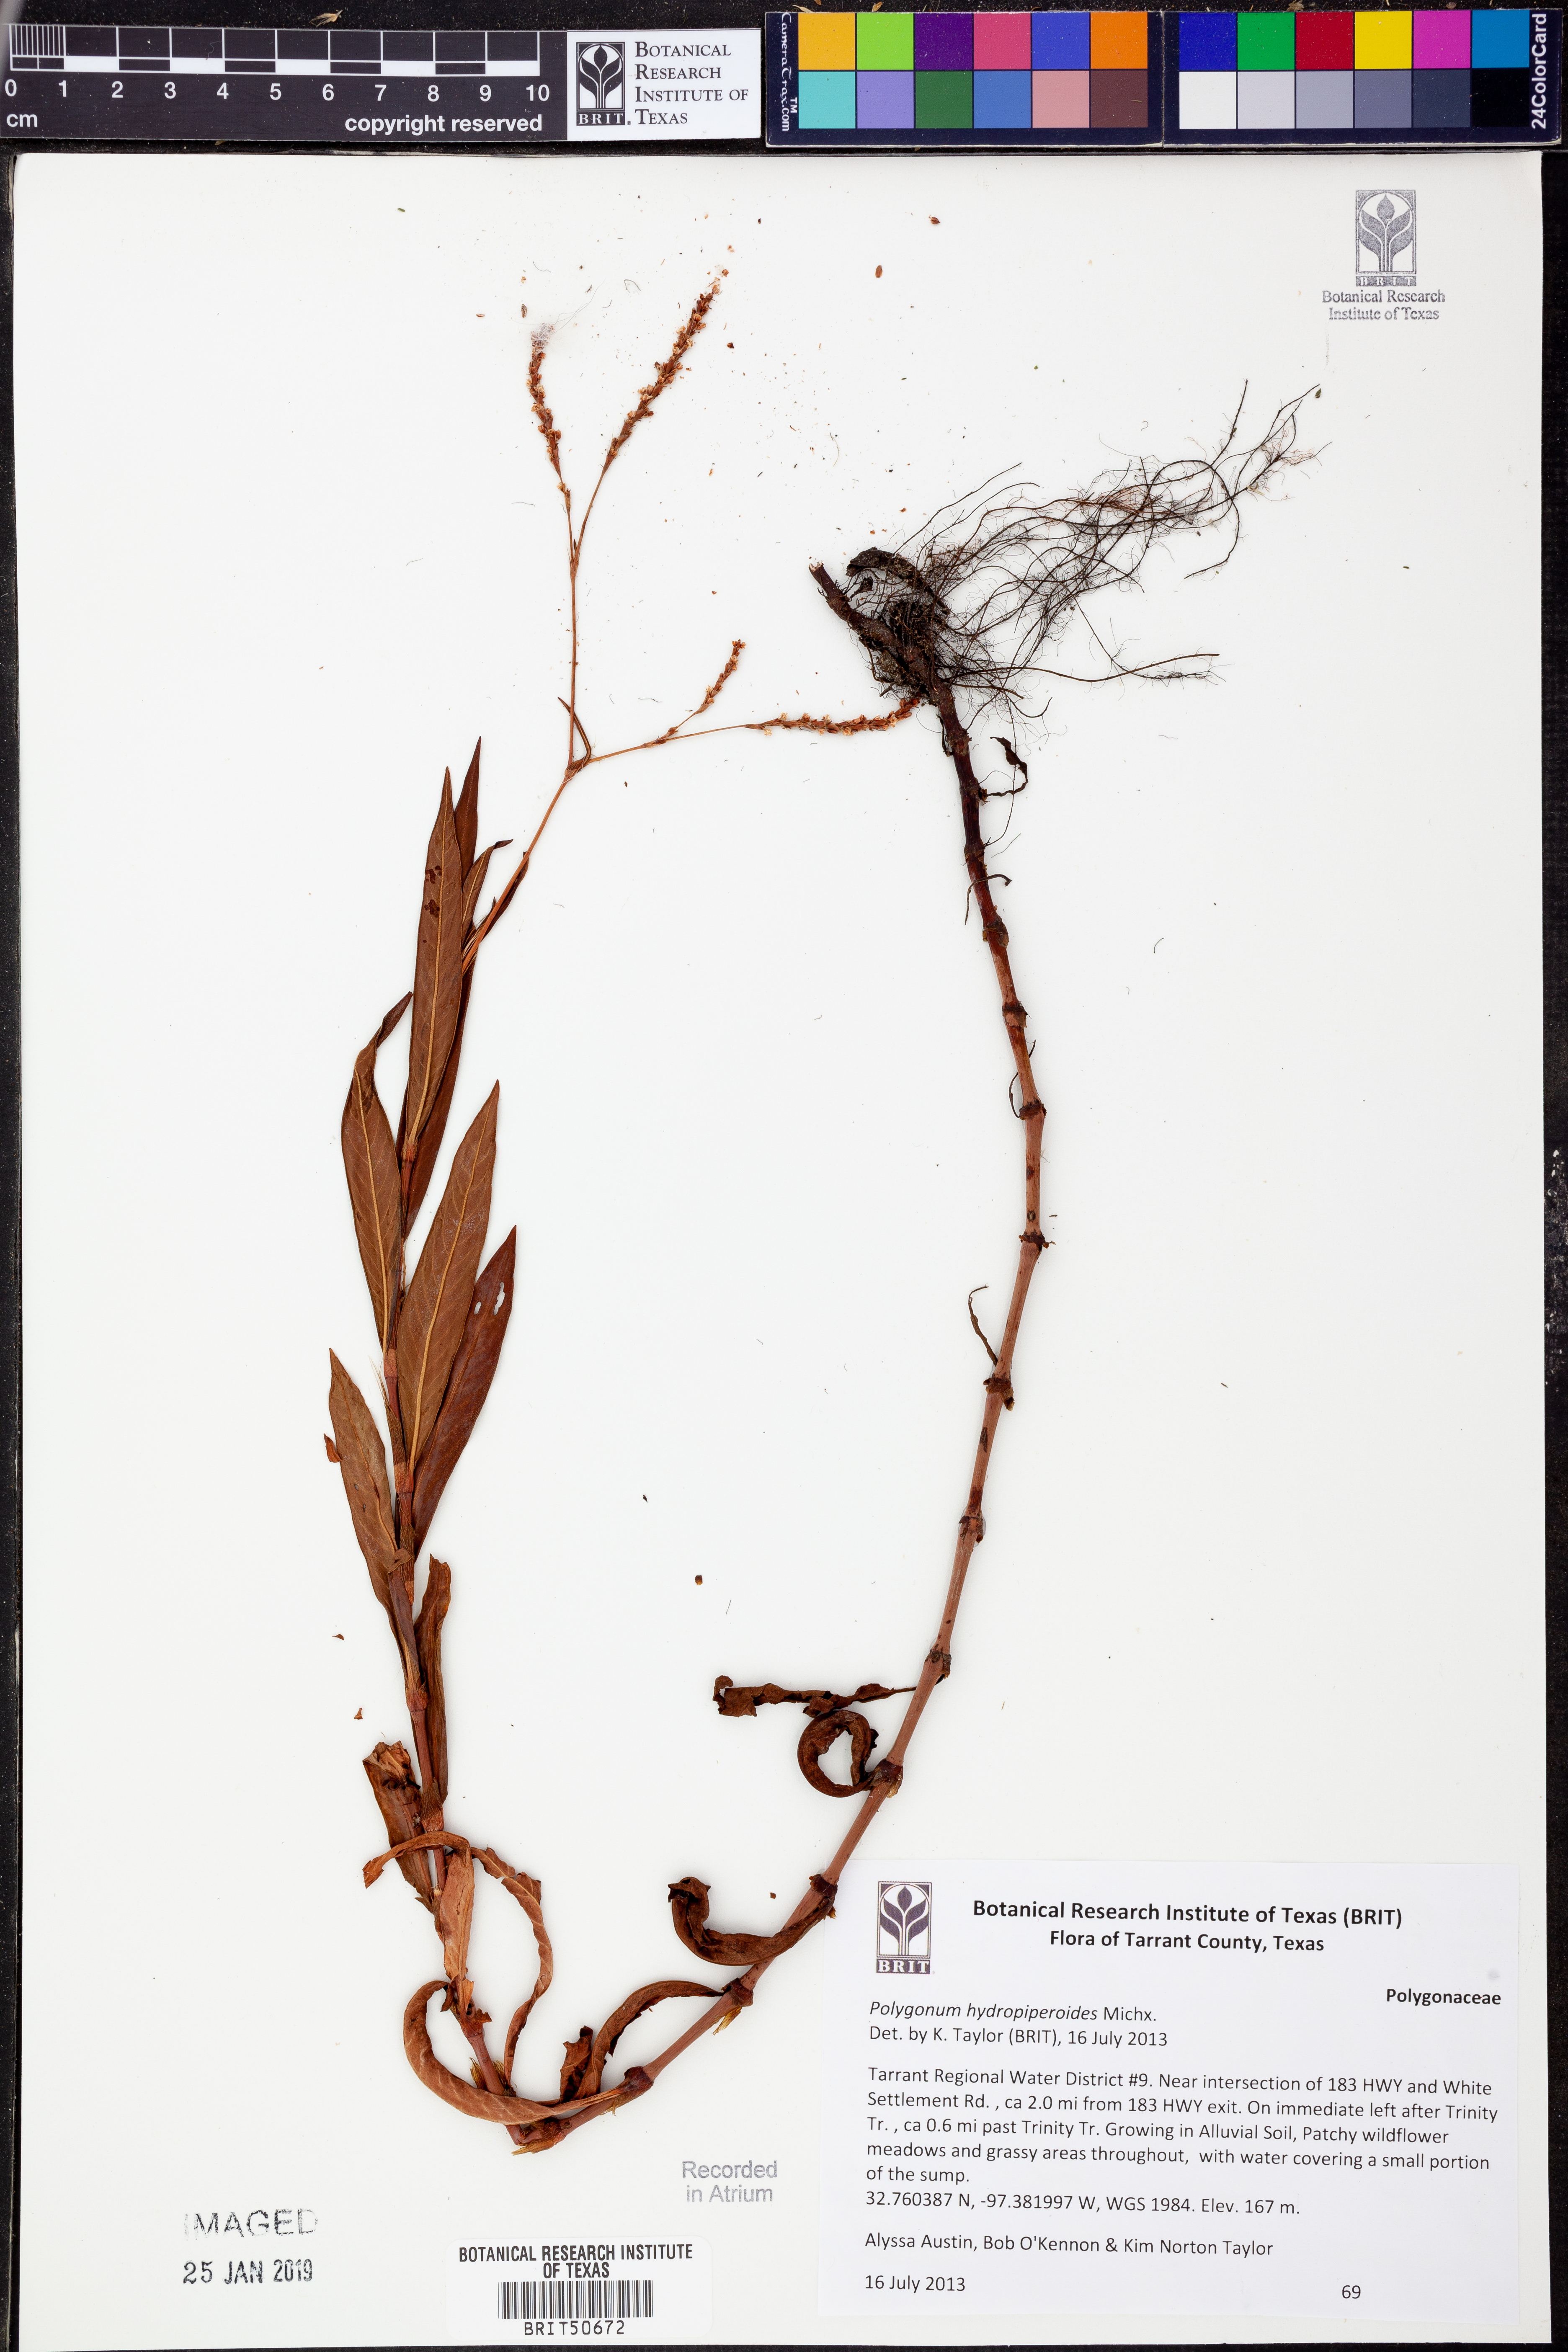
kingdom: Plantae
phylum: Tracheophyta
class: Magnoliopsida
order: Caryophyllales
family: Polygonaceae
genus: Persicaria
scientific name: Persicaria hydropiperoides
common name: Swamp smartweed
